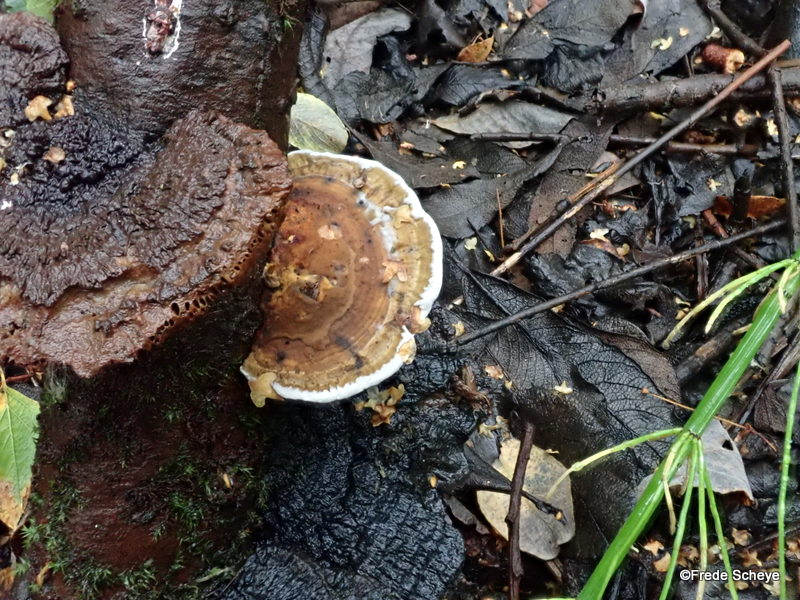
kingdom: Fungi
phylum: Basidiomycota
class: Agaricomycetes
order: Polyporales
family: Polyporaceae
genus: Daedaleopsis
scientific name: Daedaleopsis confragosa
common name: rødmende læderporesvamp
